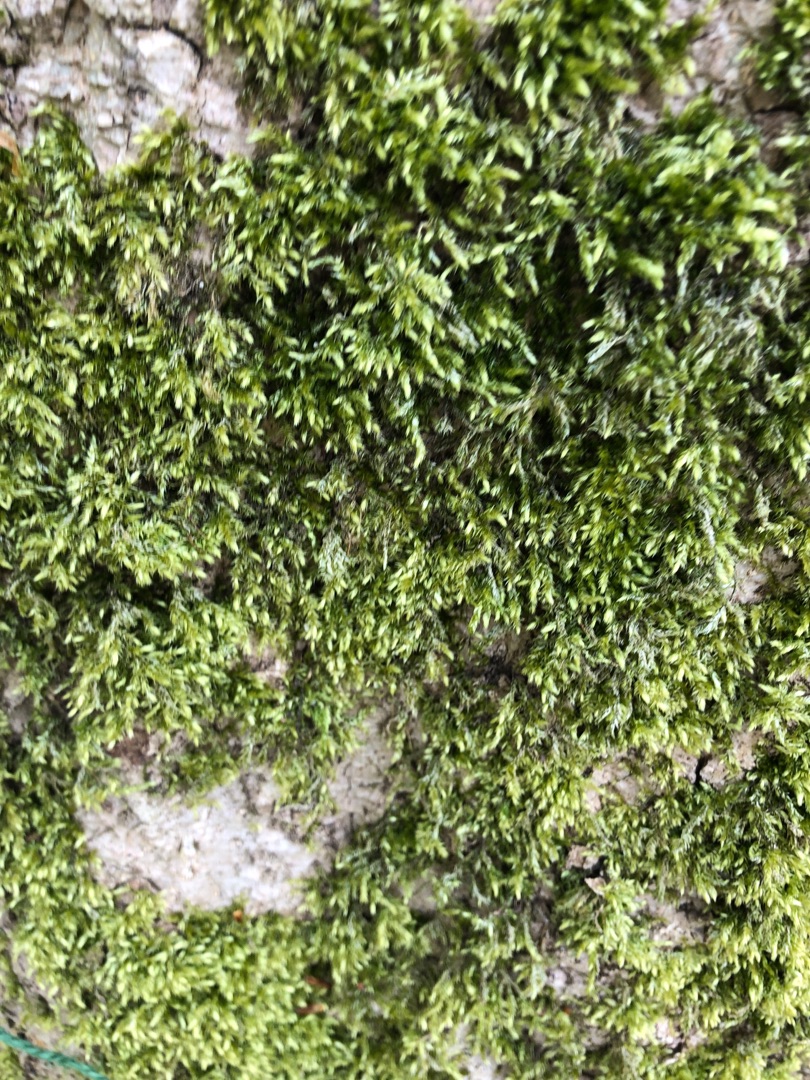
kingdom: Plantae
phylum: Bryophyta
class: Bryopsida
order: Hypnales
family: Brachytheciaceae
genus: Brachythecium
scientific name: Brachythecium rutabulum
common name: Almindelig kortkapsel
